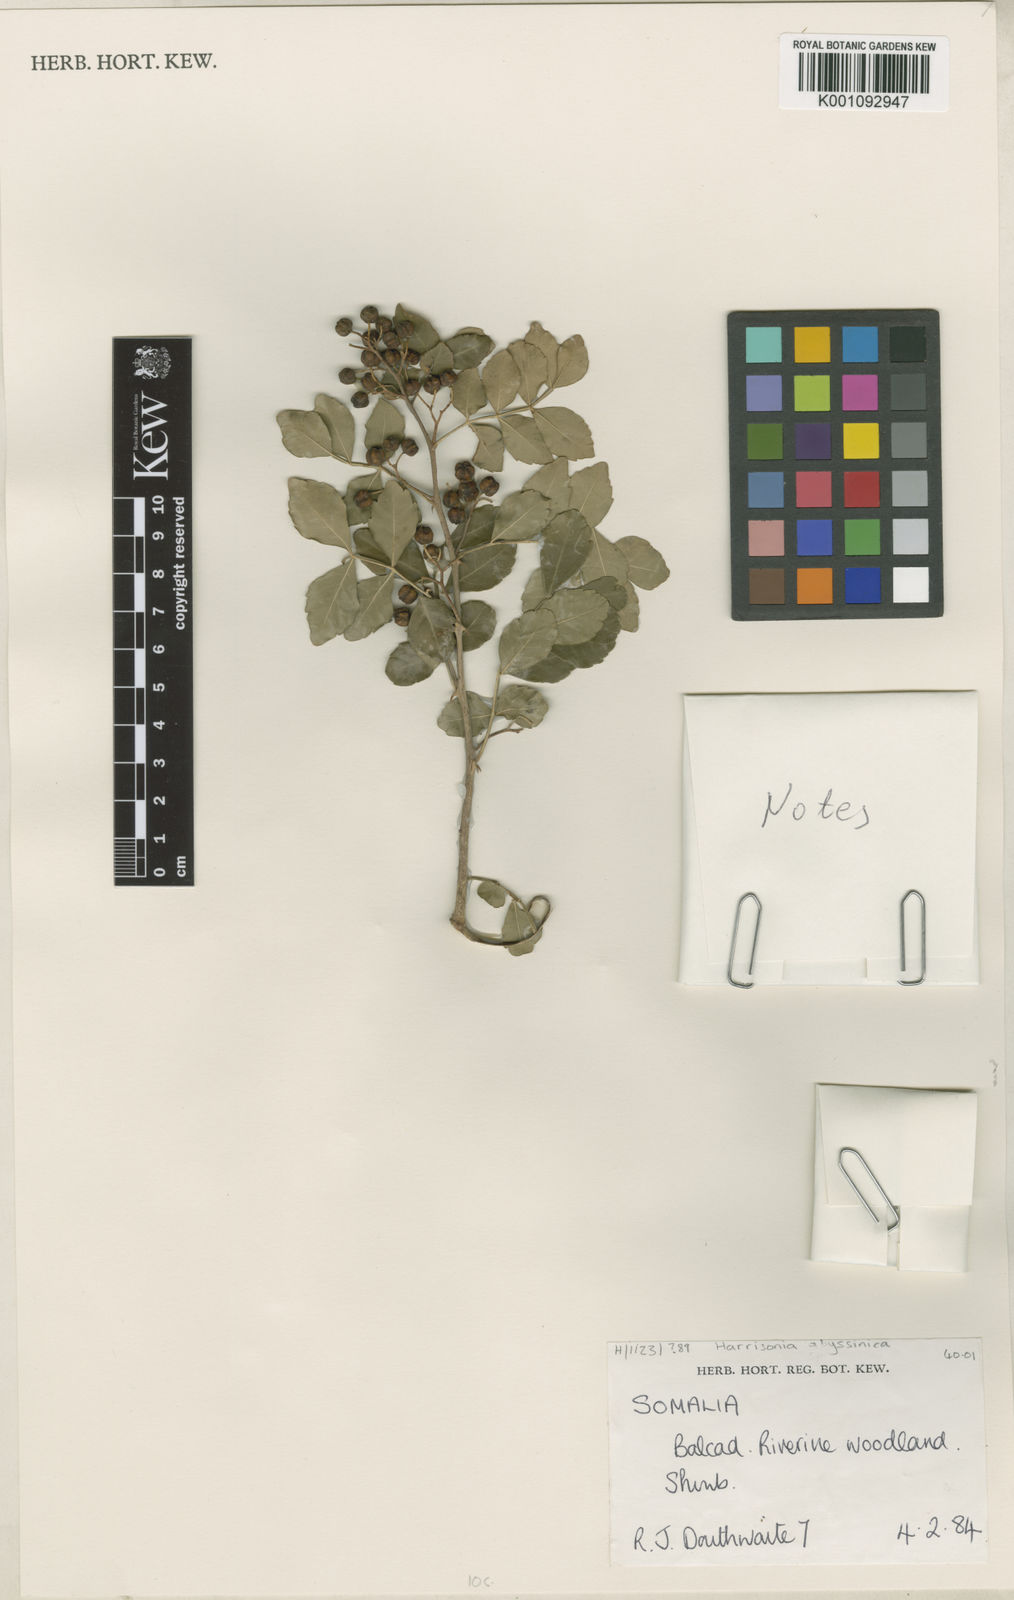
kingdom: Plantae
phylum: Tracheophyta
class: Magnoliopsida
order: Sapindales
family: Rutaceae
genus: Harrisonia
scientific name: Harrisonia abyssinica
